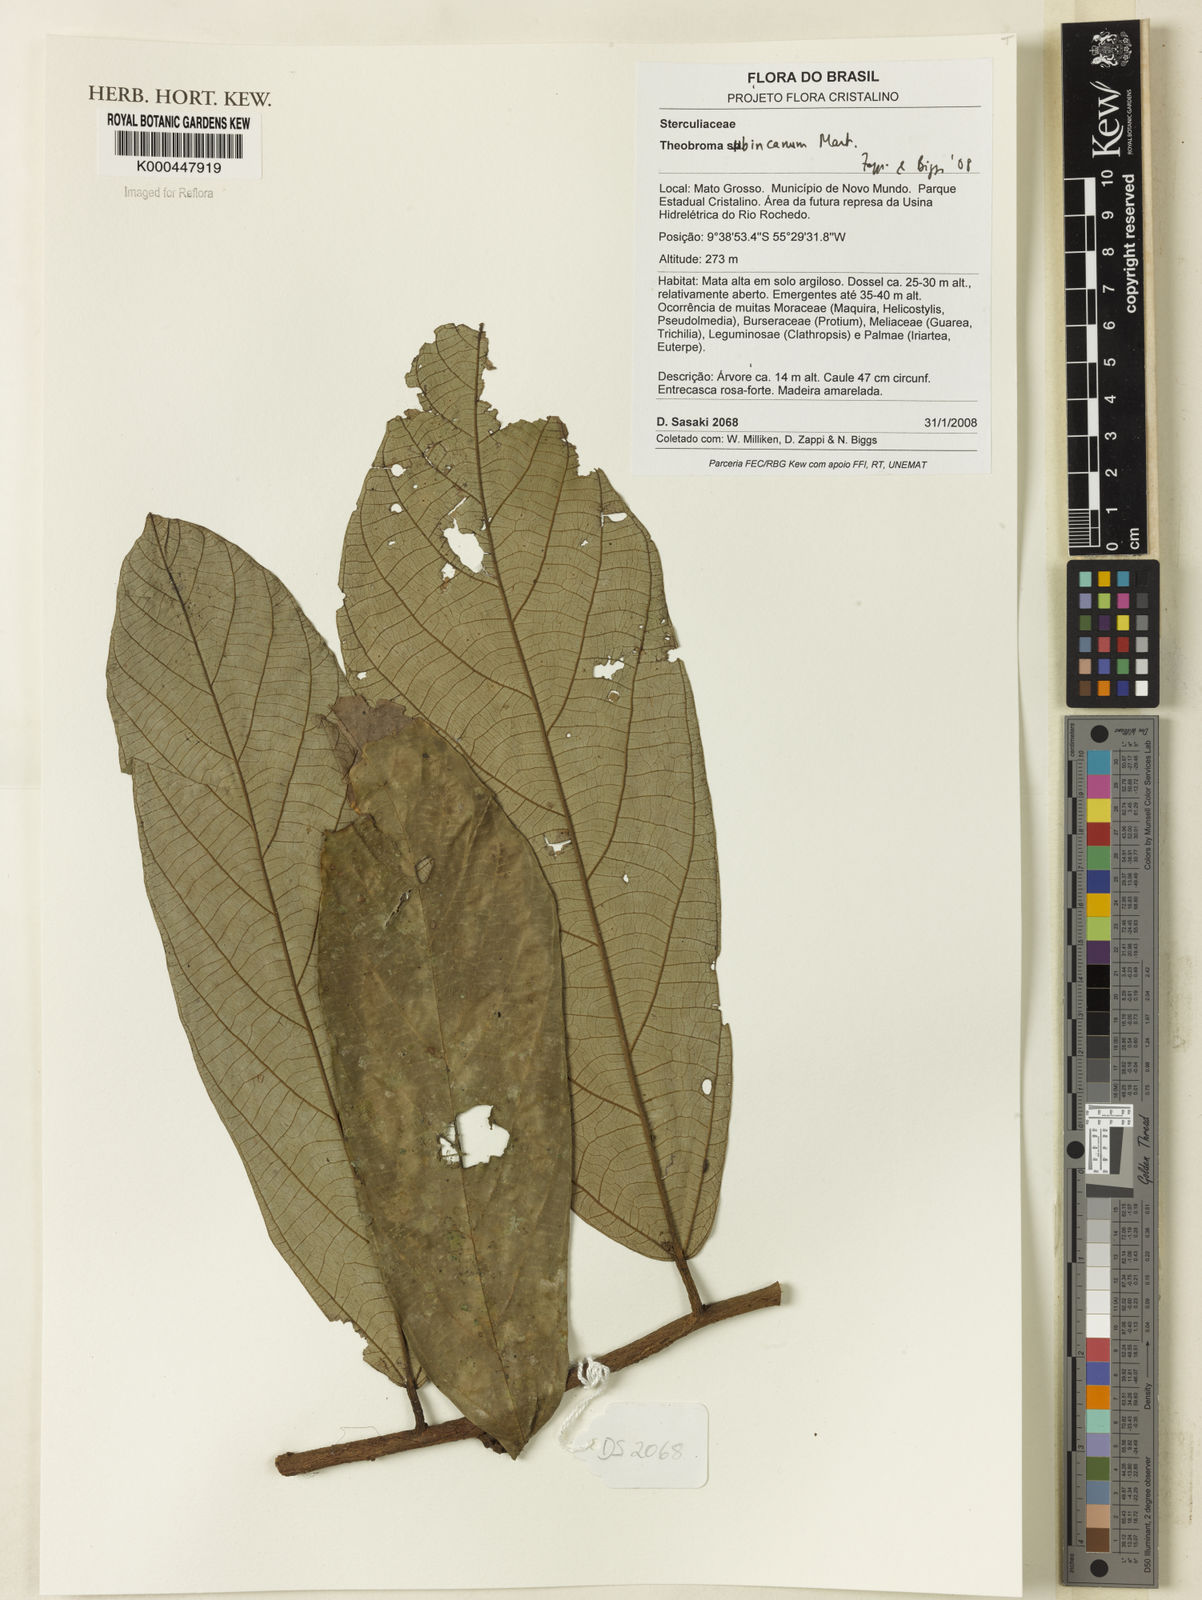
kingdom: Plantae
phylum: Tracheophyta
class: Magnoliopsida
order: Malvales
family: Malvaceae
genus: Theobroma
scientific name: Theobroma subincanum
